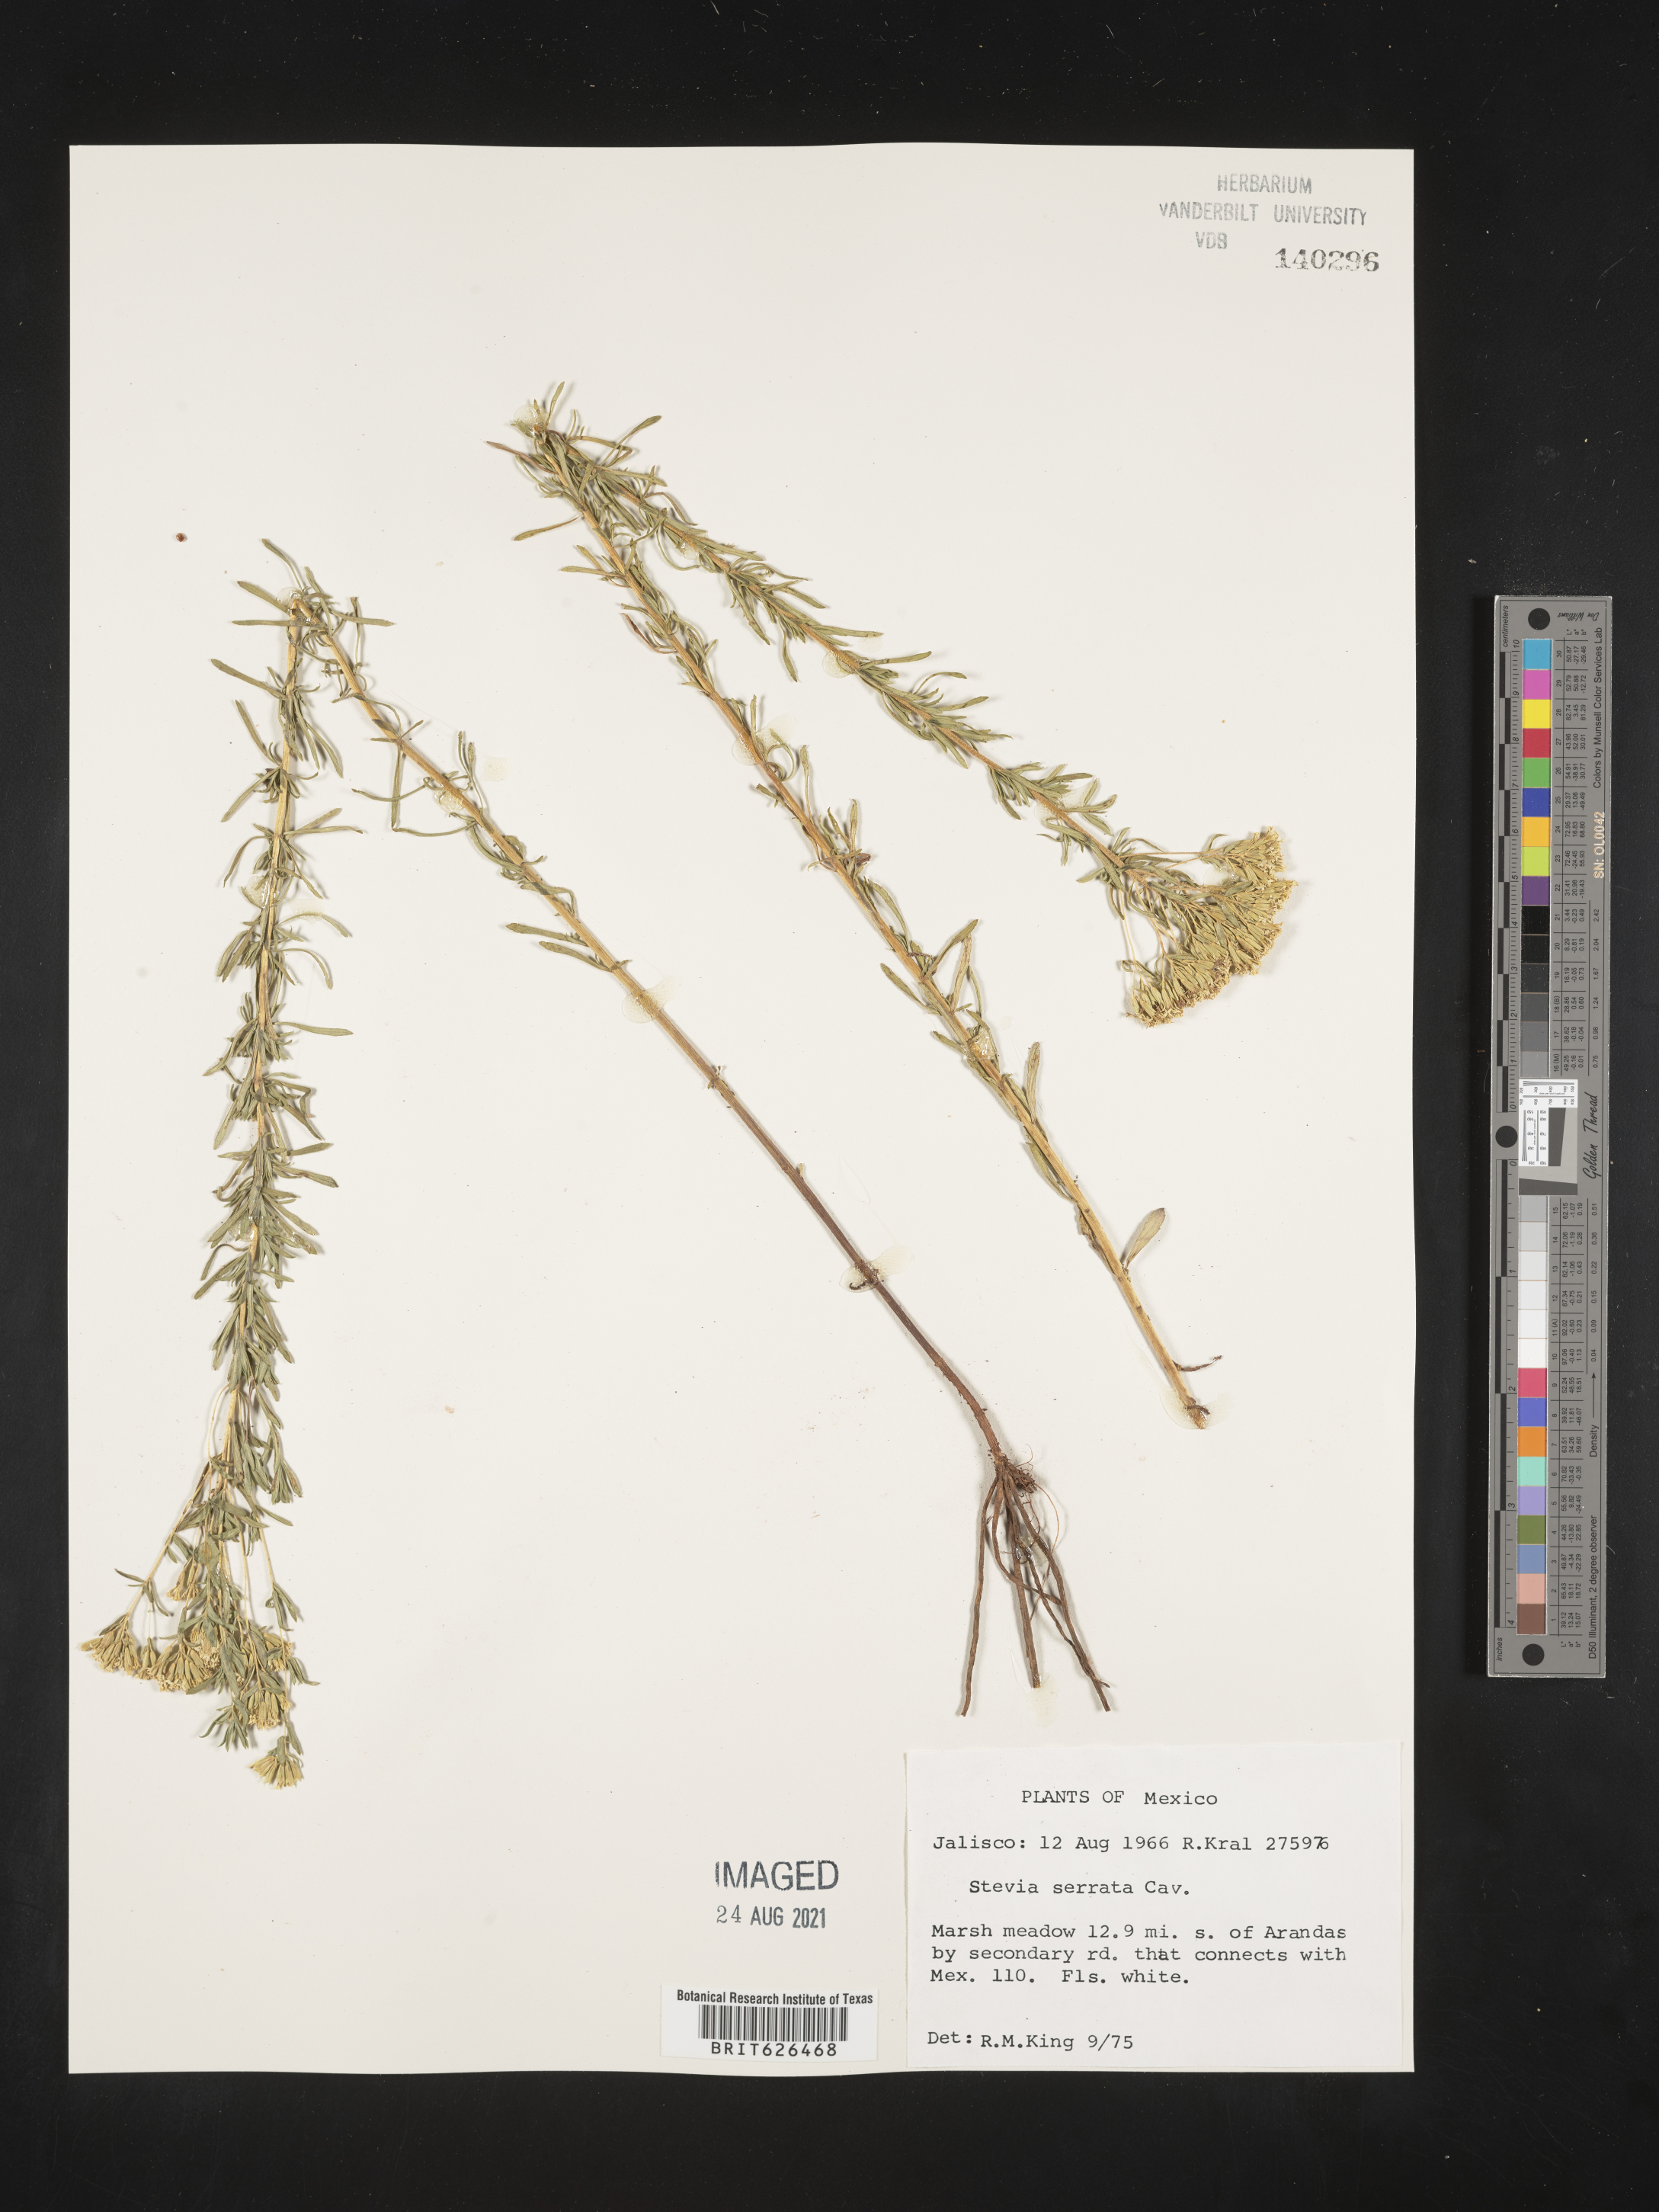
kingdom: Plantae
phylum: Tracheophyta
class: Magnoliopsida
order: Asterales
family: Asteraceae
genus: Stevia
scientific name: Stevia
